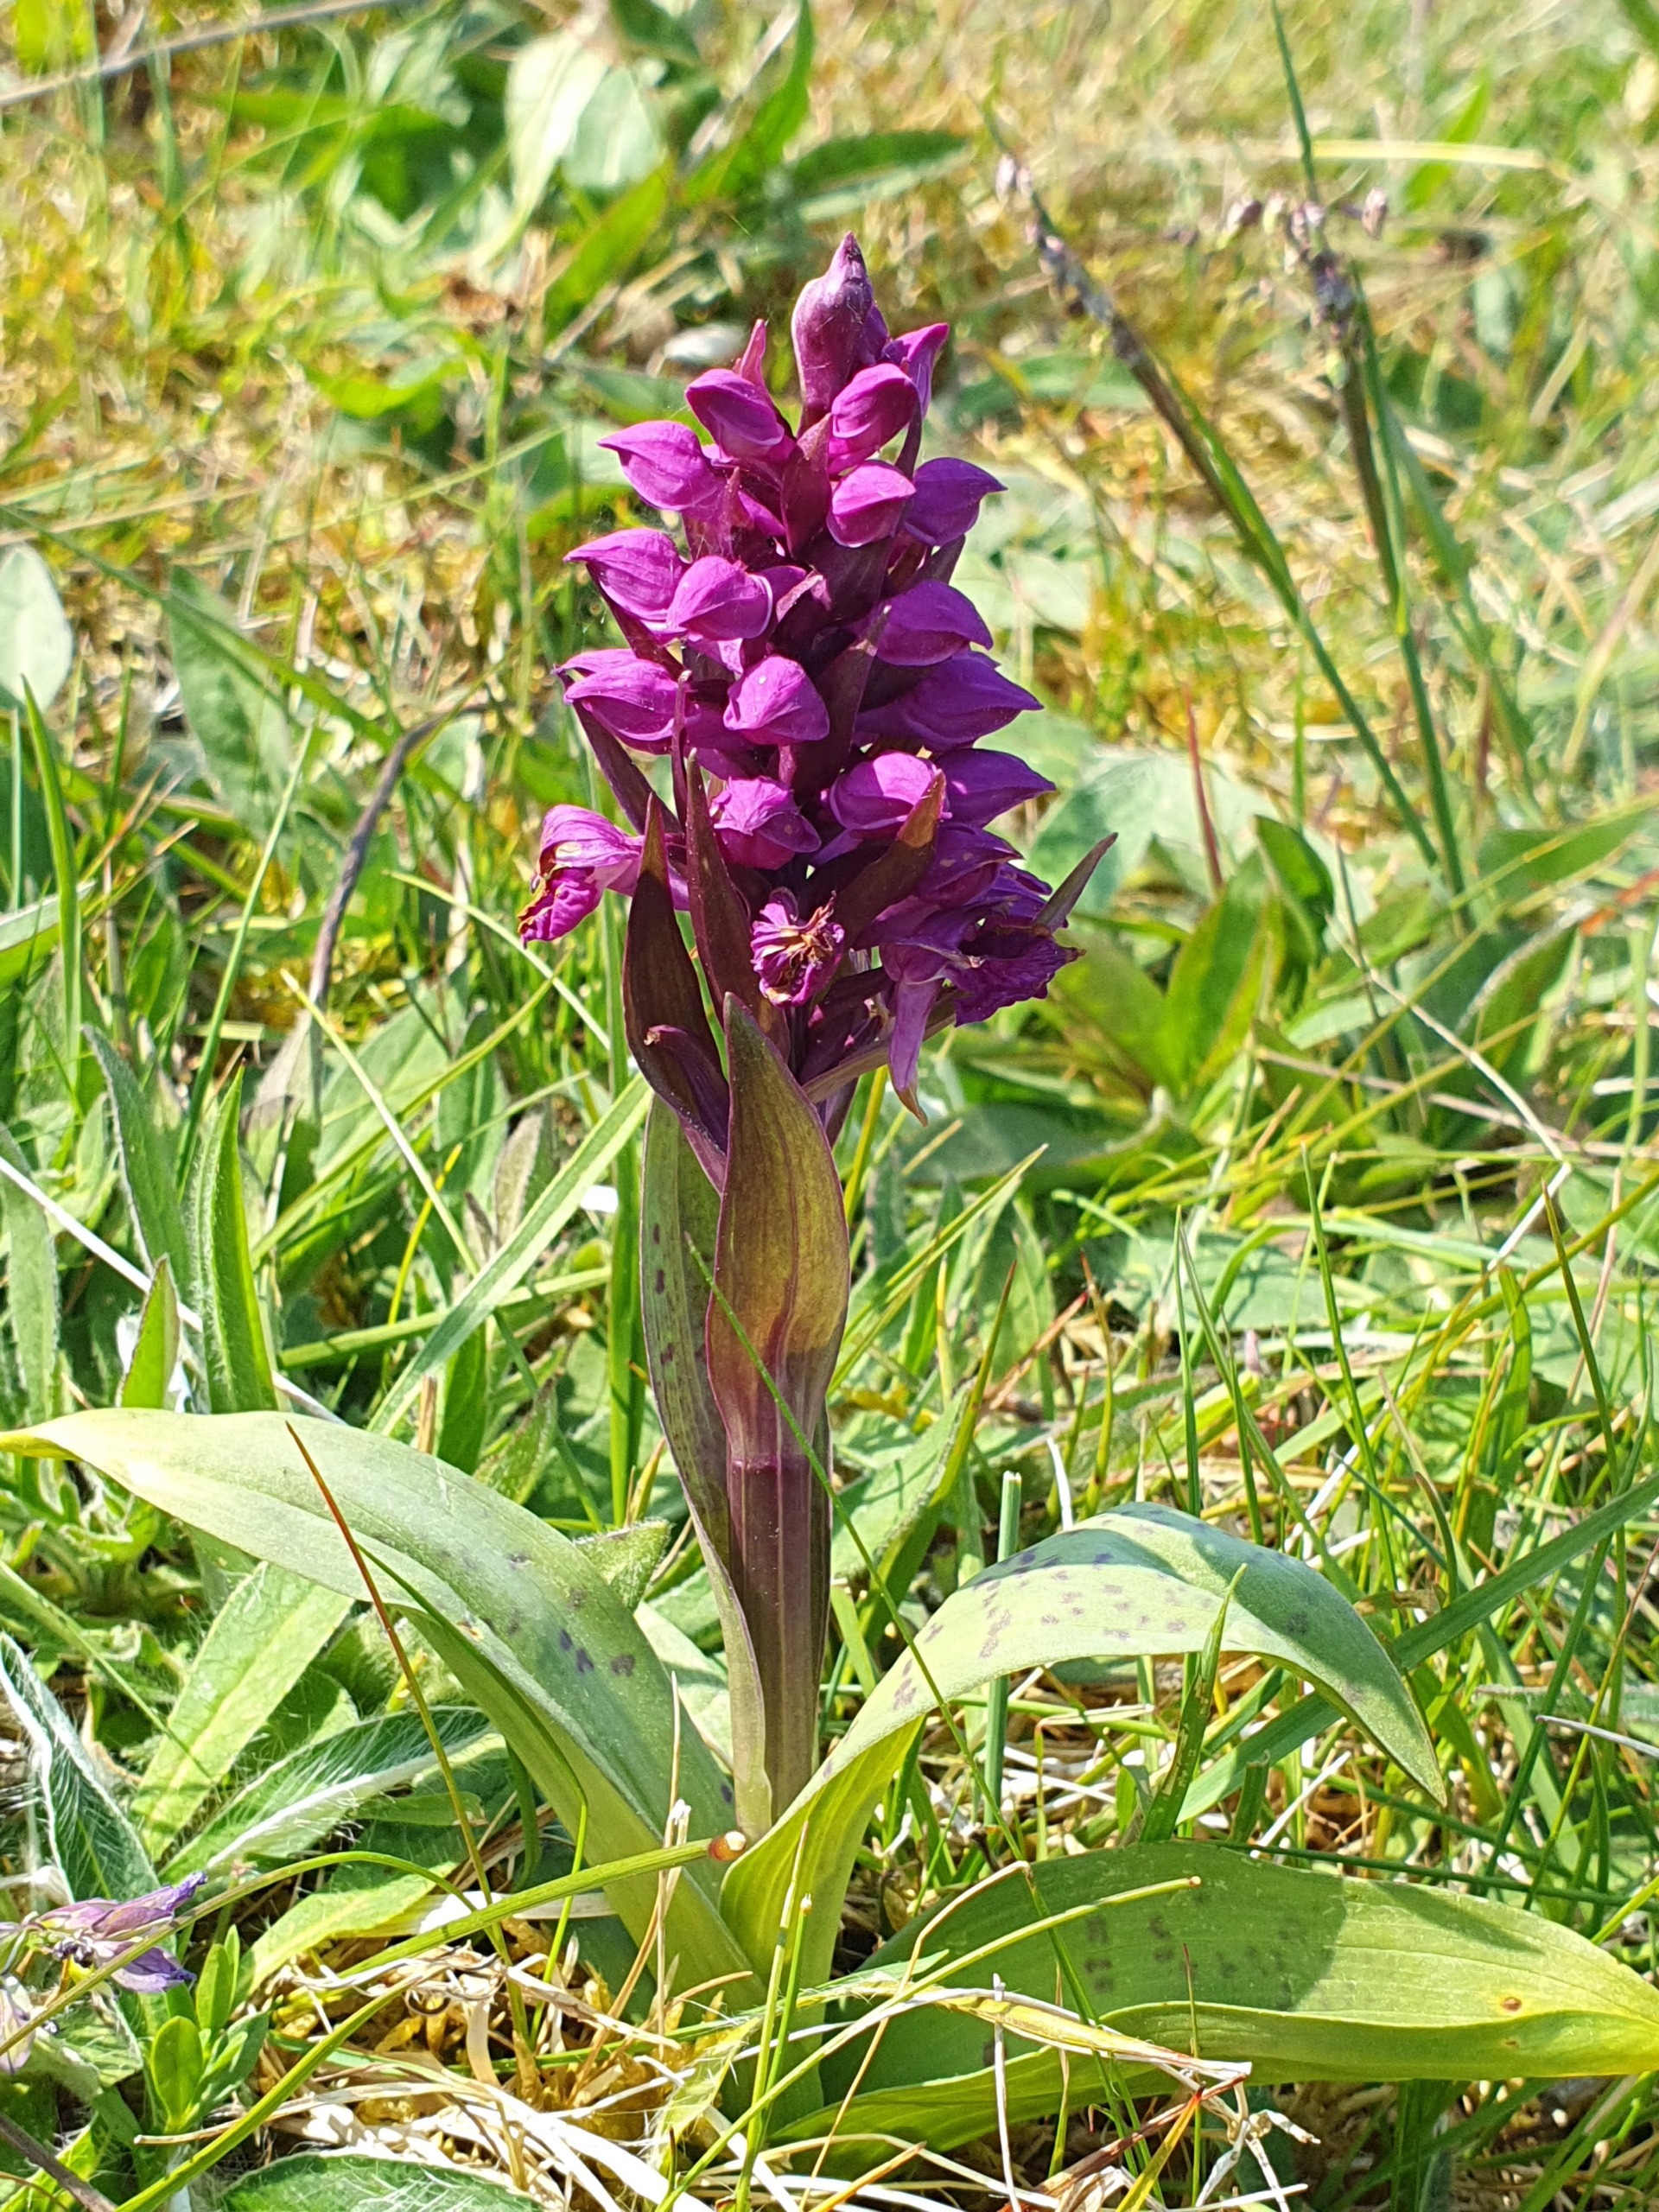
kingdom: Plantae
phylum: Tracheophyta
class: Liliopsida
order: Asparagales
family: Orchidaceae
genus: Dactylorhiza
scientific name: Dactylorhiza majalis
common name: Maj-gøgeurt
